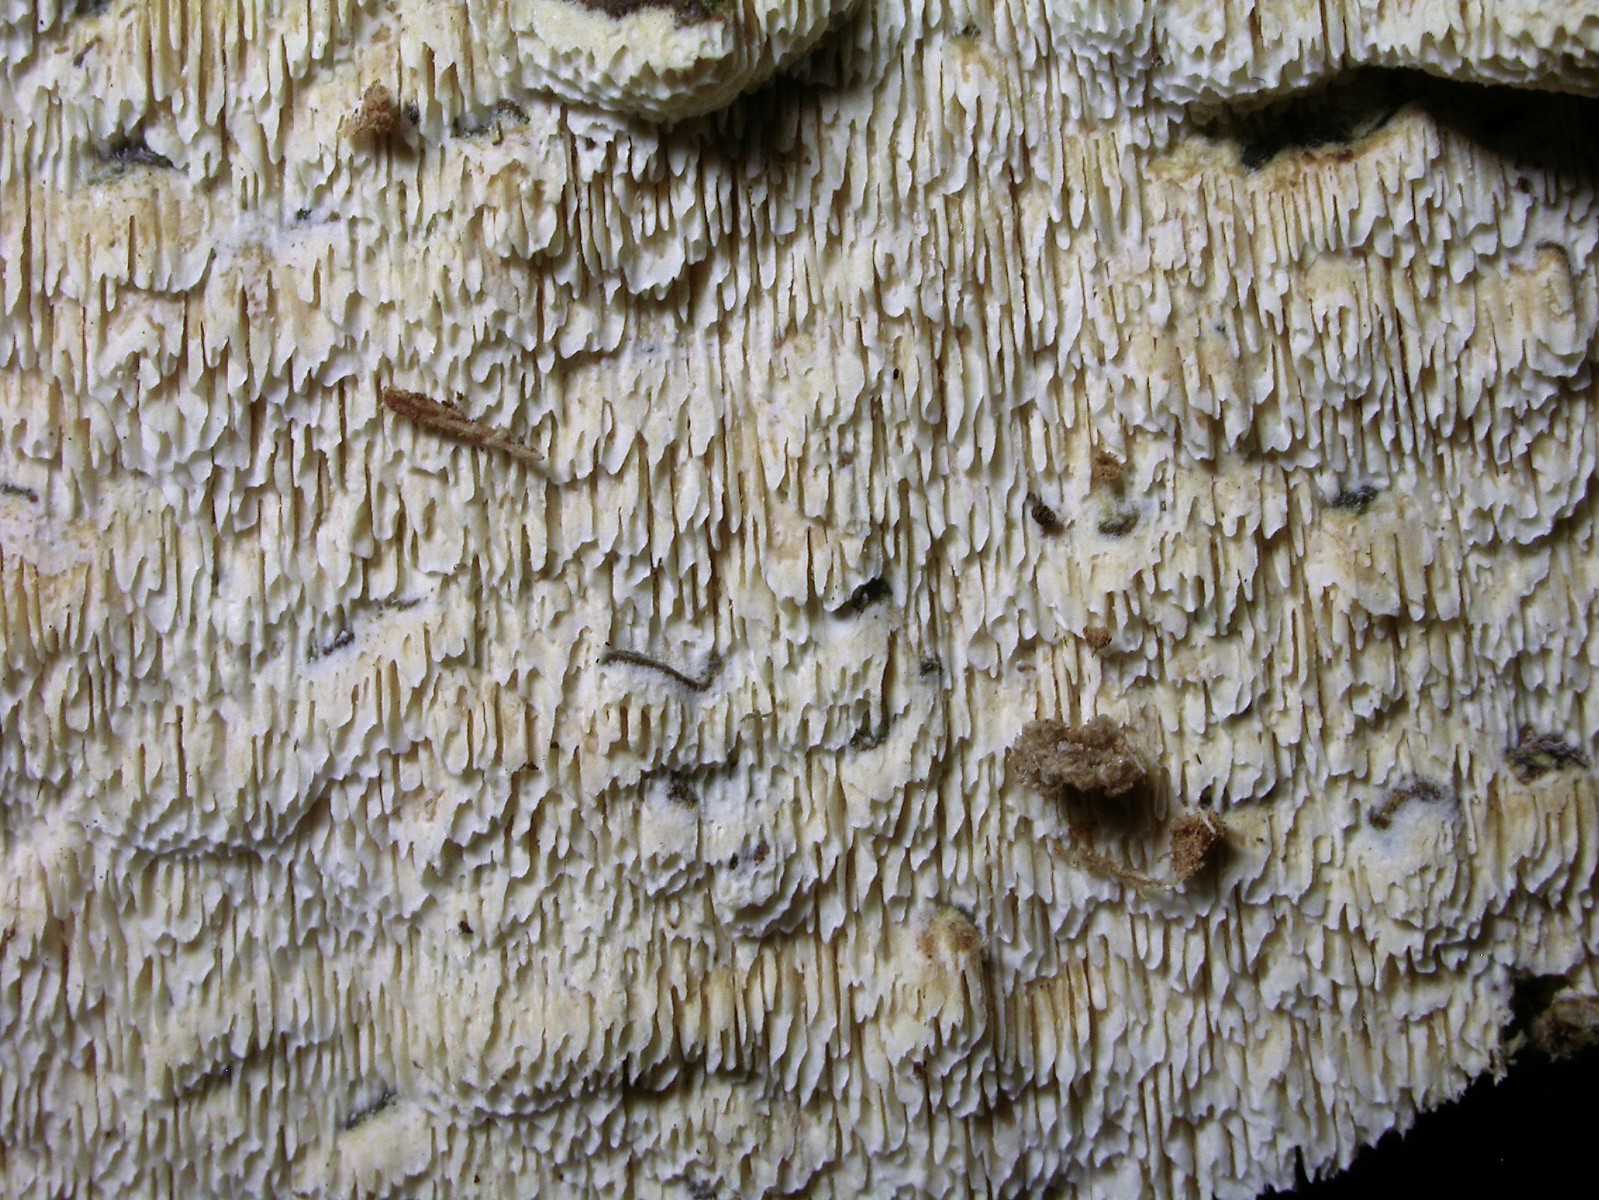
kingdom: Fungi
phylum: Basidiomycota
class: Agaricomycetes
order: Hymenochaetales
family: Schizoporaceae
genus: Schizopora
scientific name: Schizopora paradoxa
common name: hvid tandsvamp
